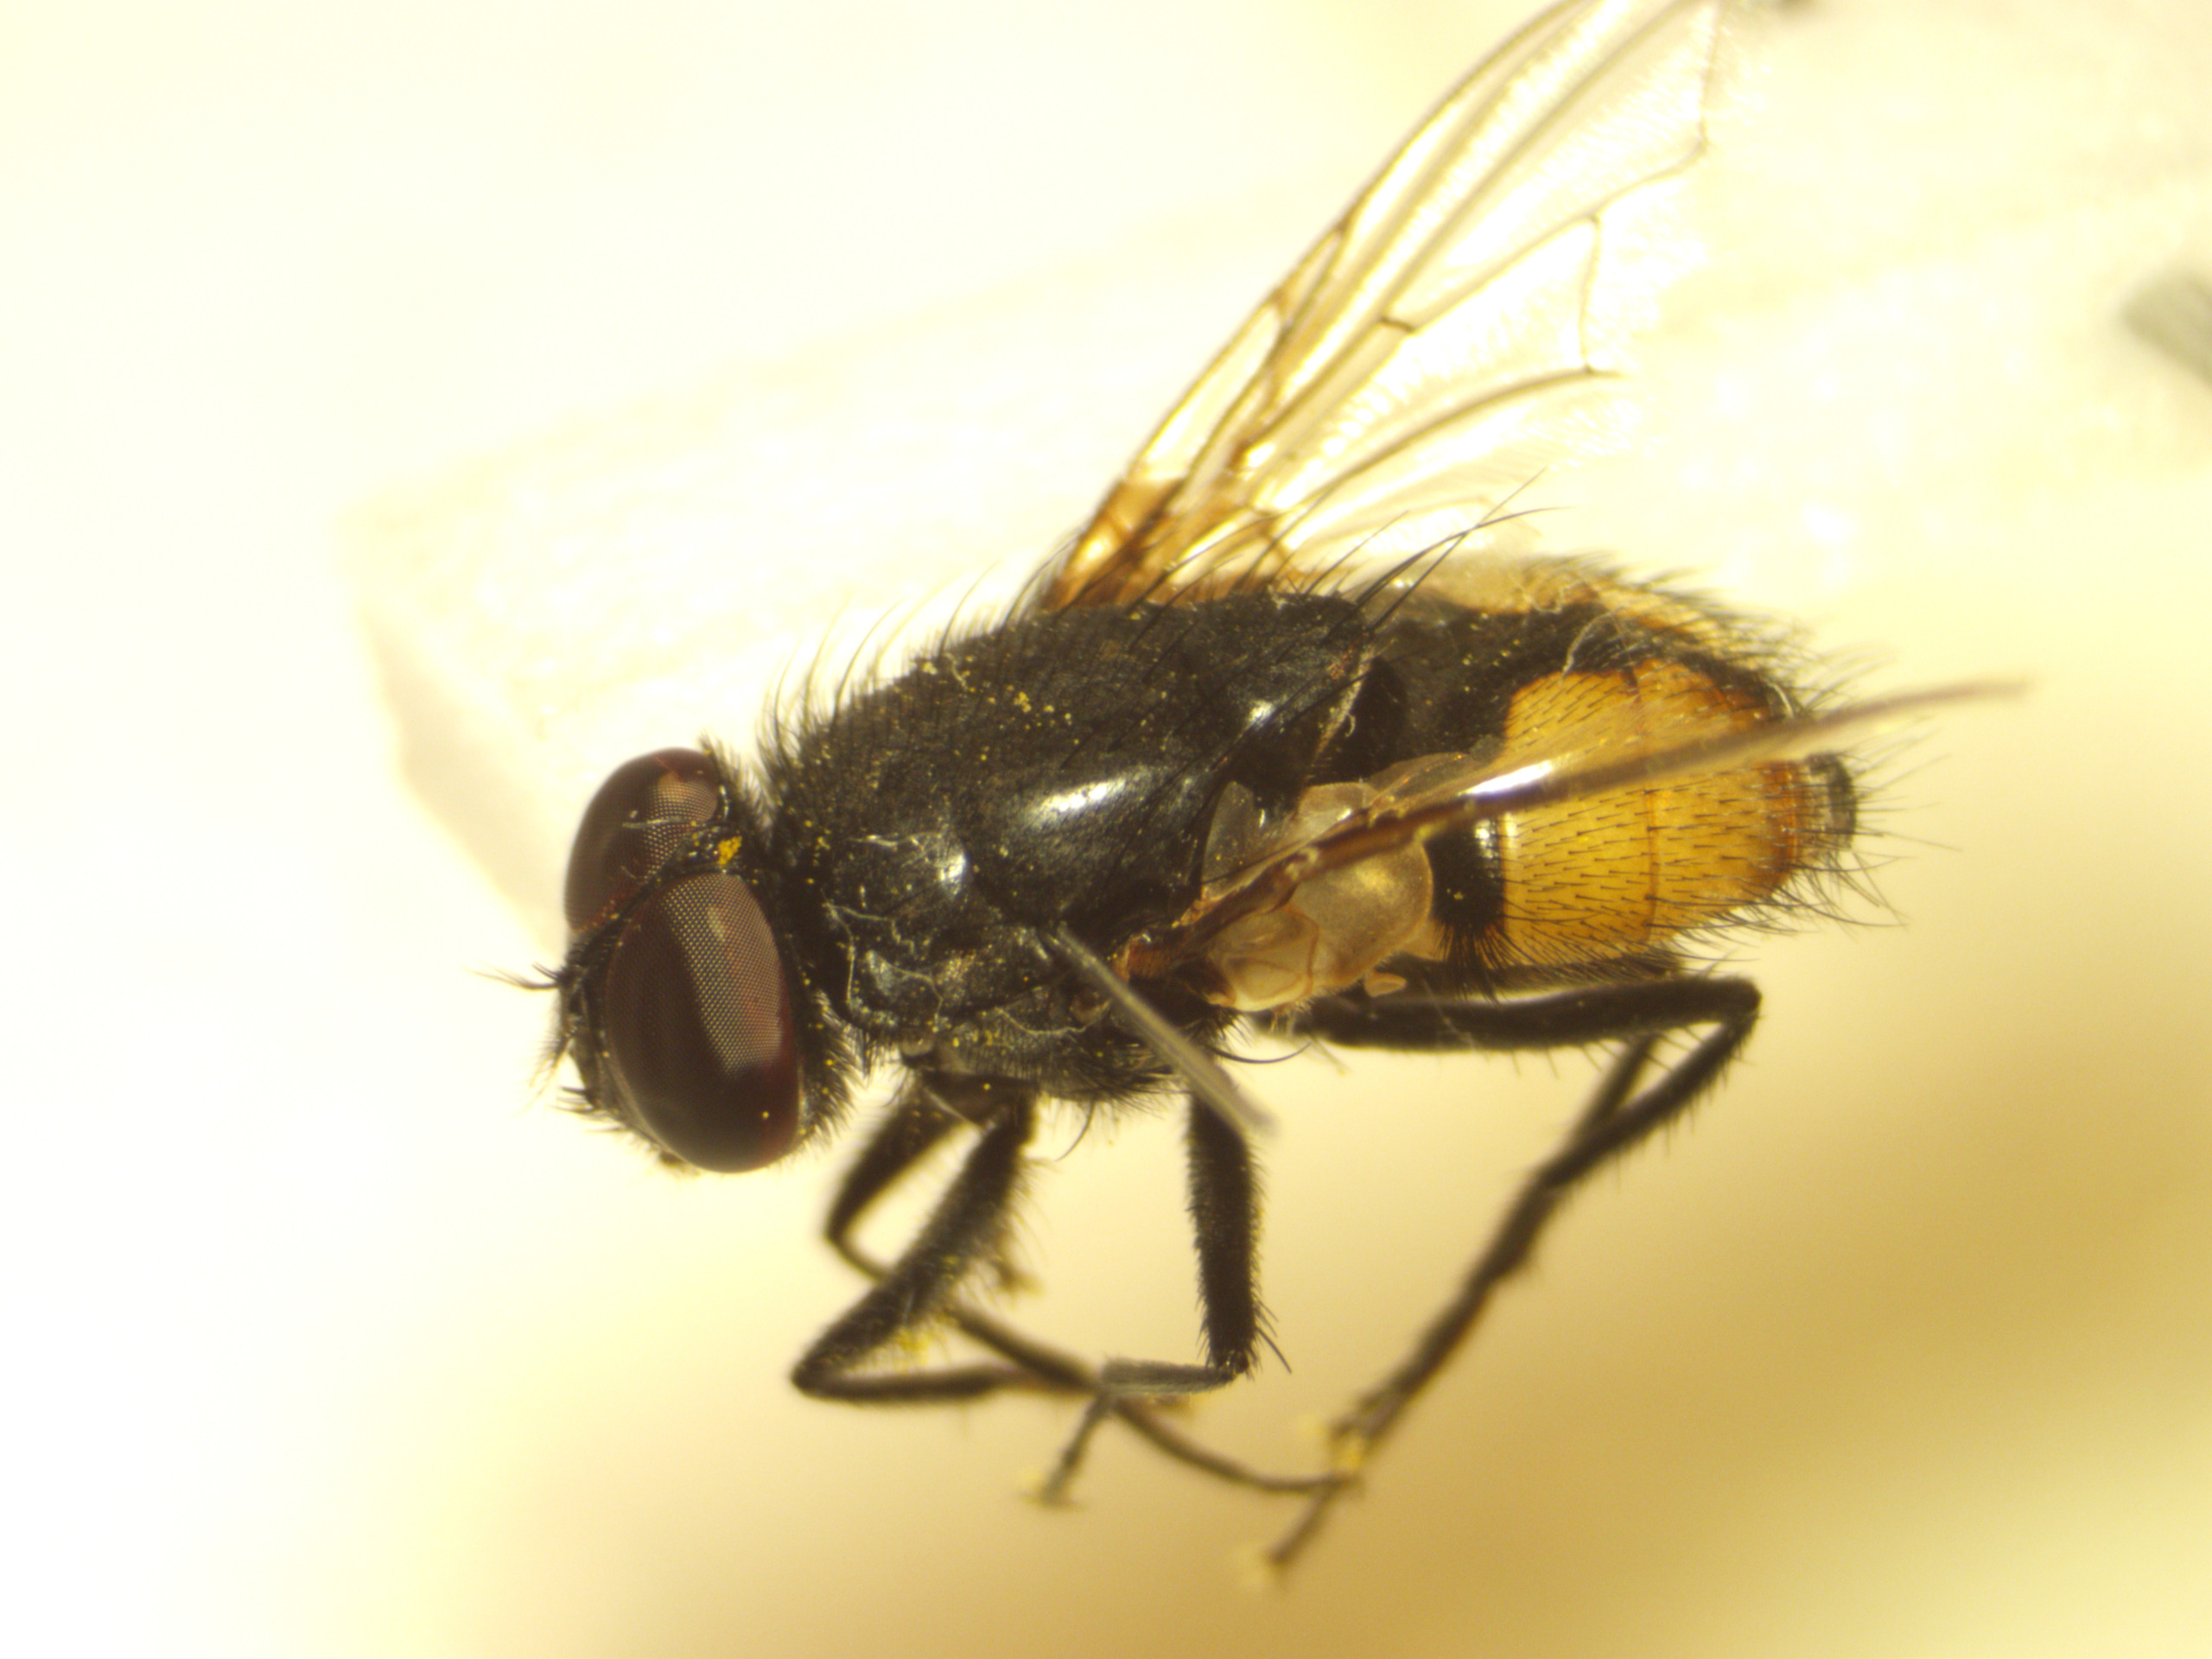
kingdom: Animalia
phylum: Arthropoda
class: Insecta
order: Diptera
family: Muscidae
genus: Musca
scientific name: Musca autumnalis
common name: Kvægflue
